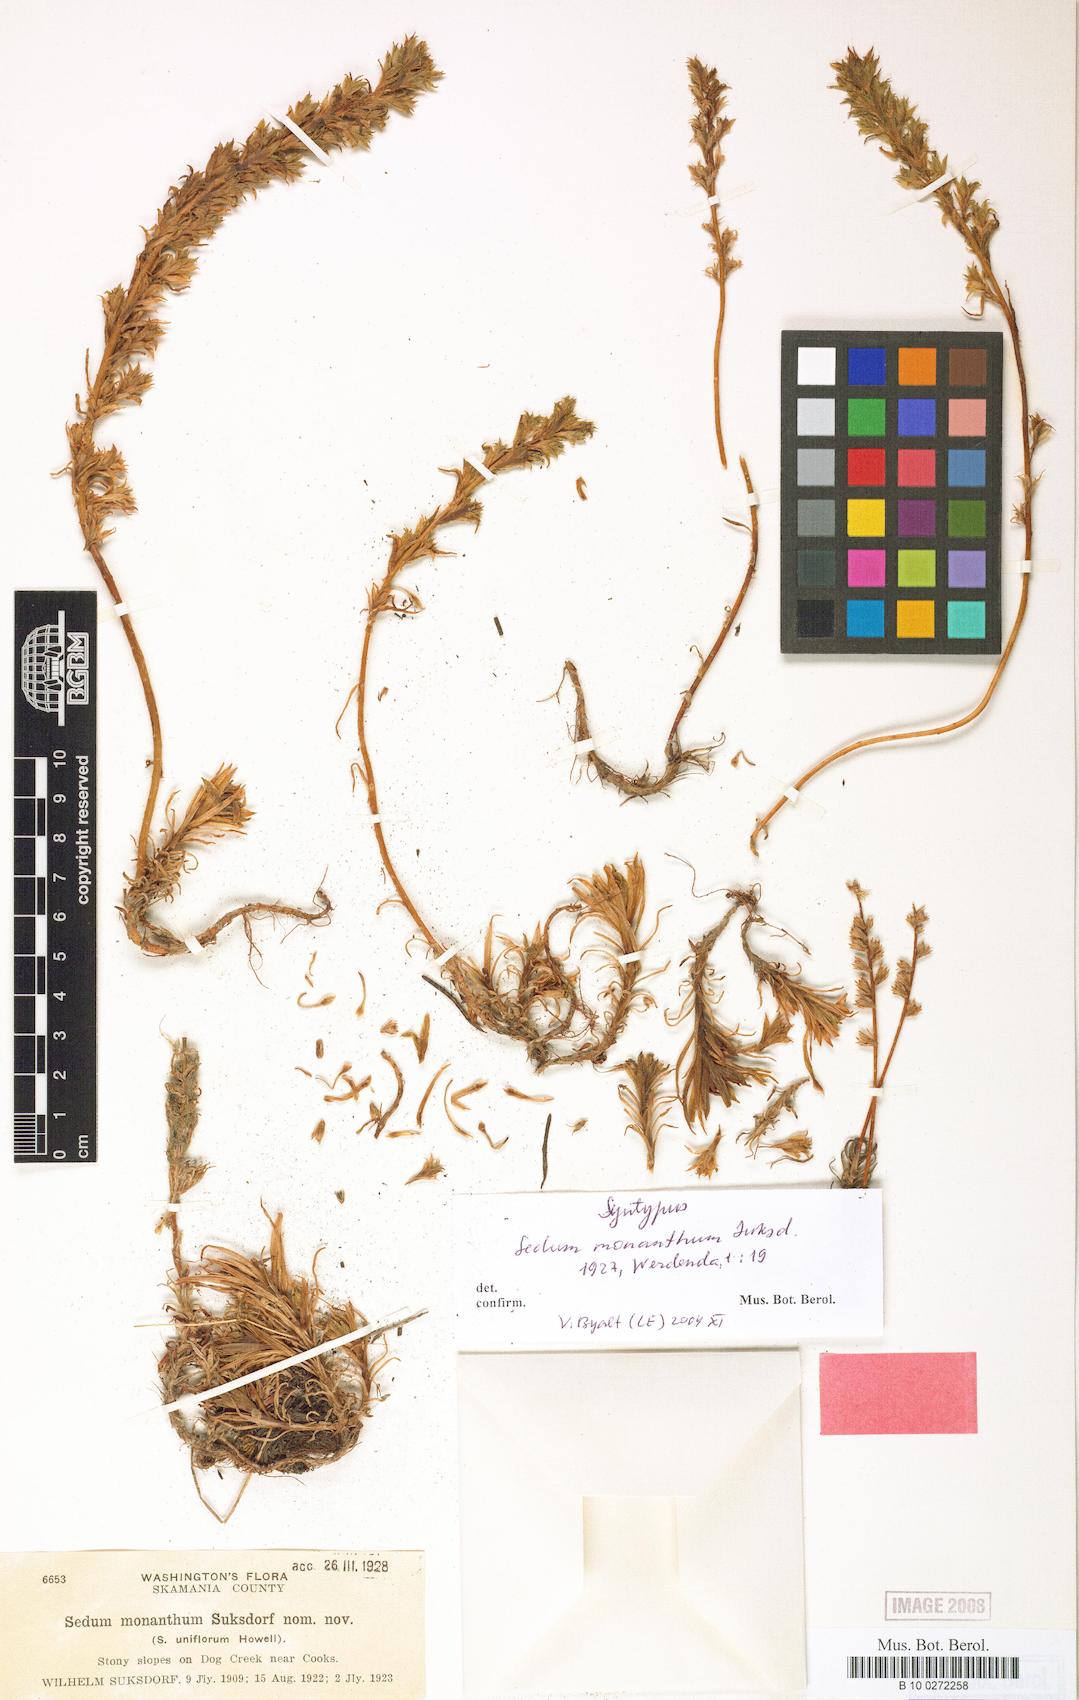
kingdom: Plantae
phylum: Tracheophyta
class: Magnoliopsida
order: Saxifragales
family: Crassulaceae
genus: Sedum
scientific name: Sedum stenopetalum
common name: Narrow-petaled stonecrop
